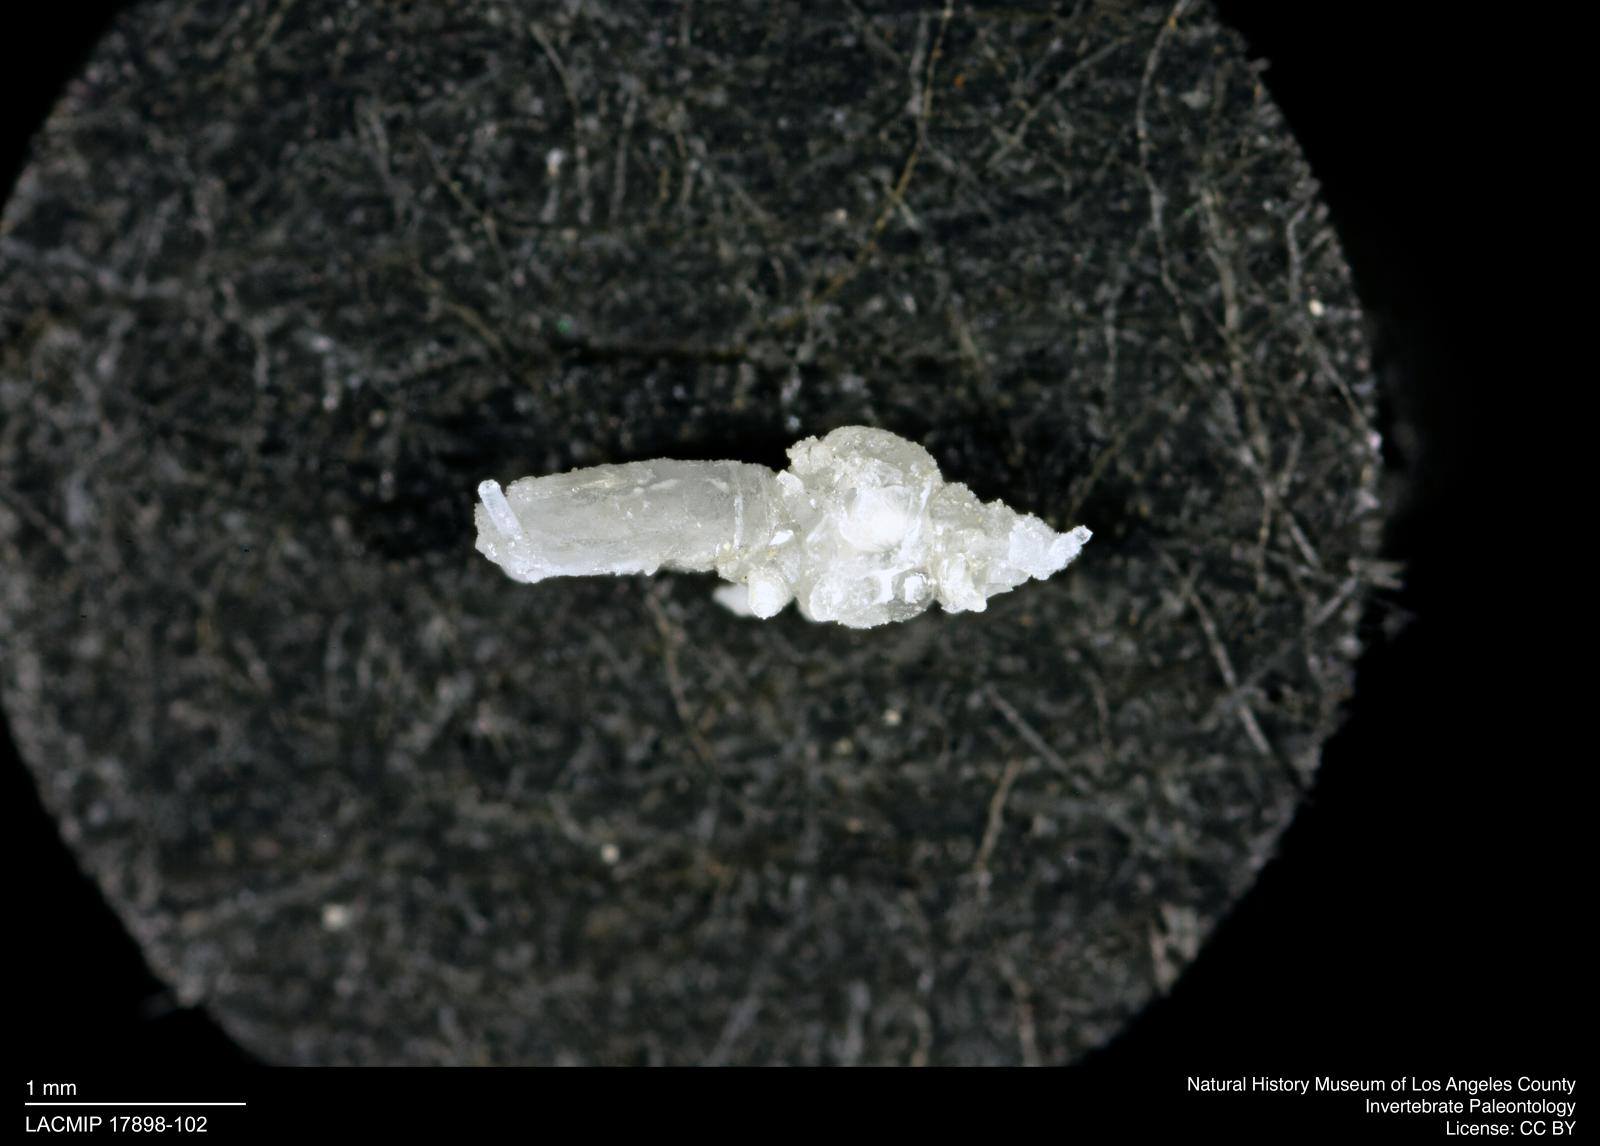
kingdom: Animalia
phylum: Arthropoda
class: Insecta
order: Hemiptera
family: Aphididae
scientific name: Aphididae
